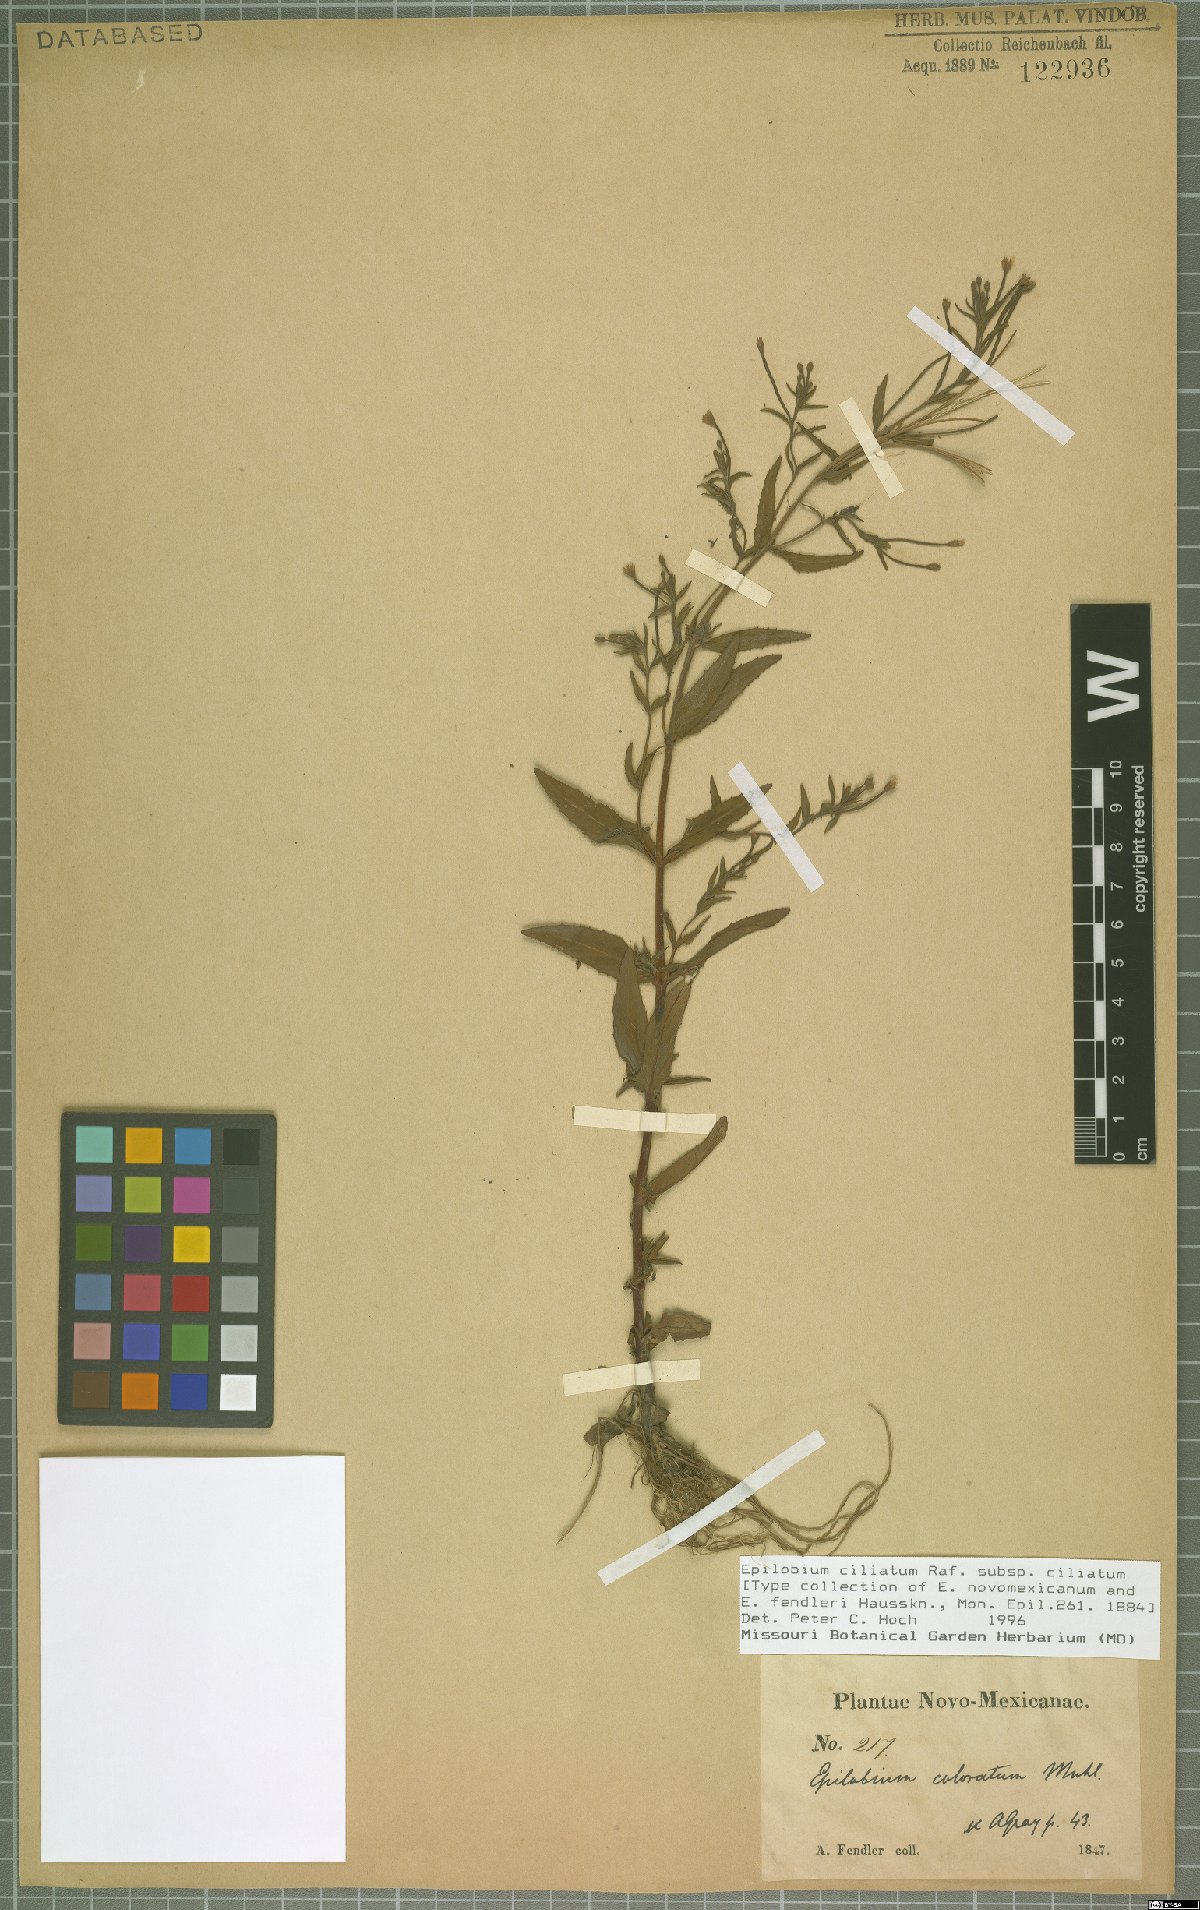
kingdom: Plantae
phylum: Tracheophyta
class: Magnoliopsida
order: Myrtales
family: Onagraceae
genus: Epilobium
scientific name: Epilobium ciliatum
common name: American willowherb
